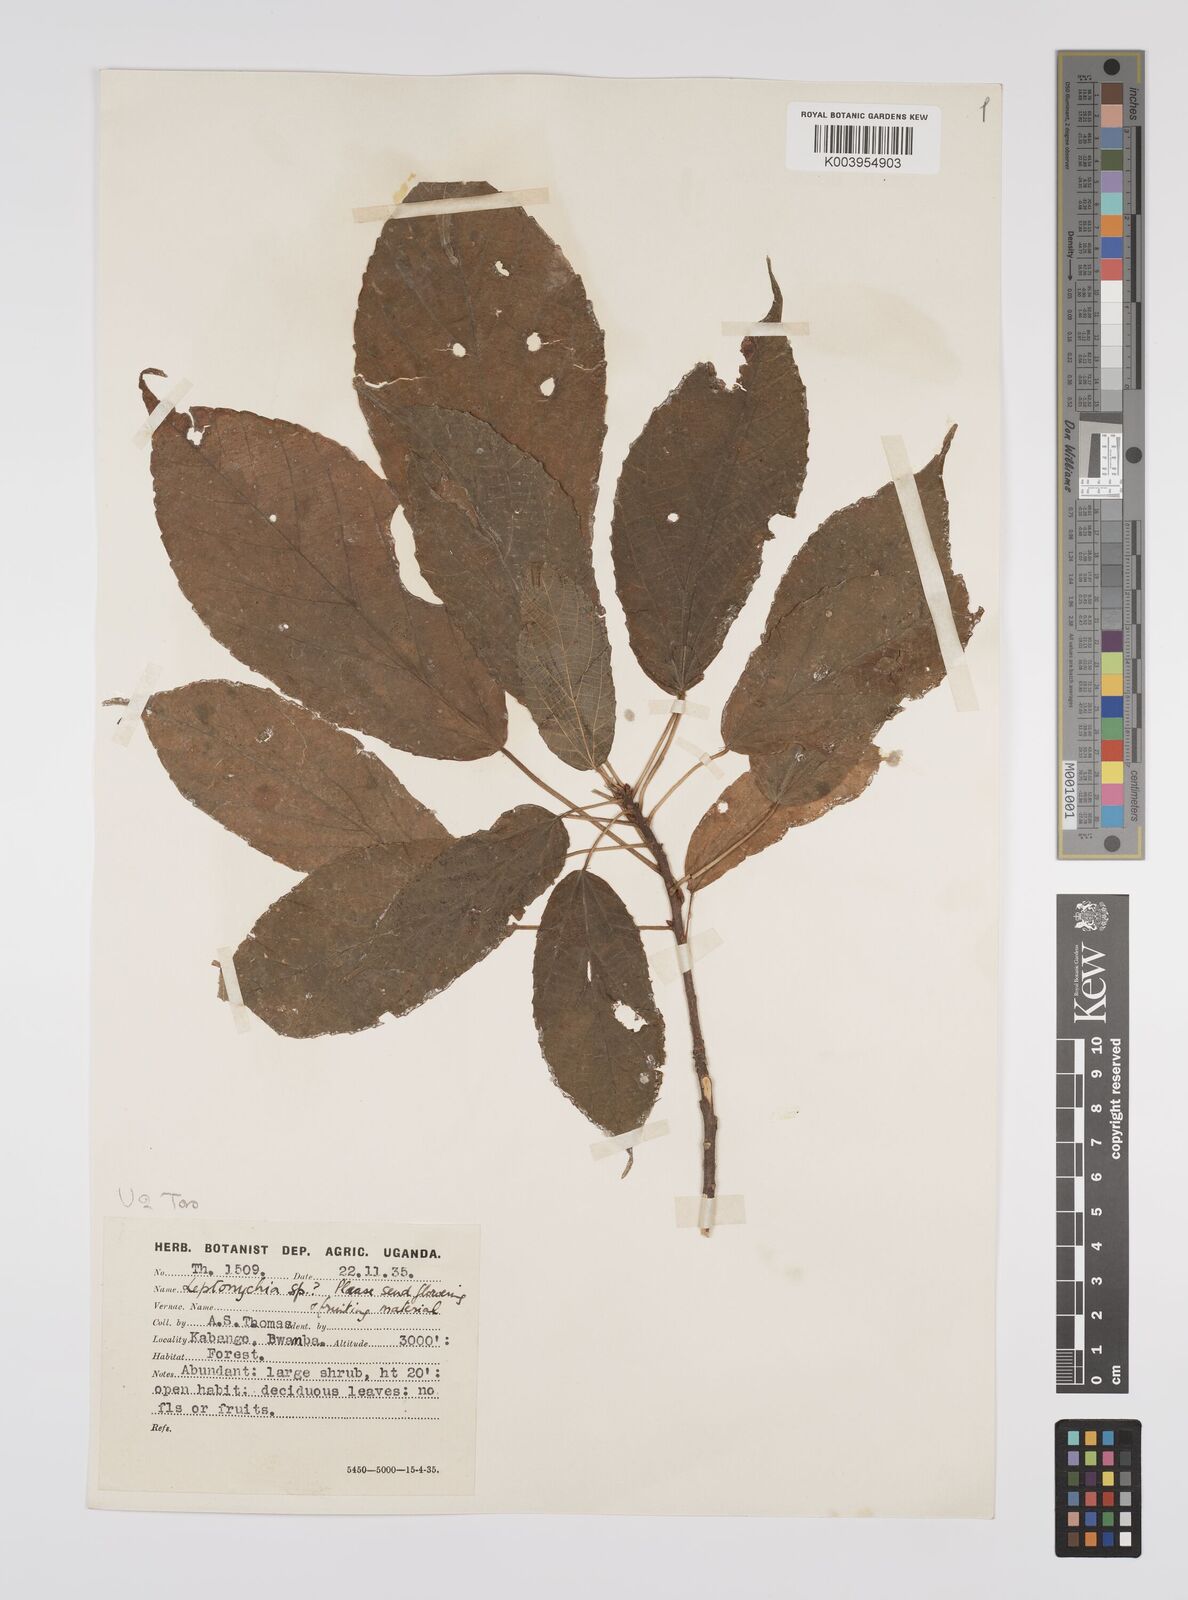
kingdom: Plantae
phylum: Tracheophyta
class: Magnoliopsida
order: Malpighiales
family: Euphorbiaceae
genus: Alchornea
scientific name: Alchornea laxiflora
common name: Lowveld bead-string
